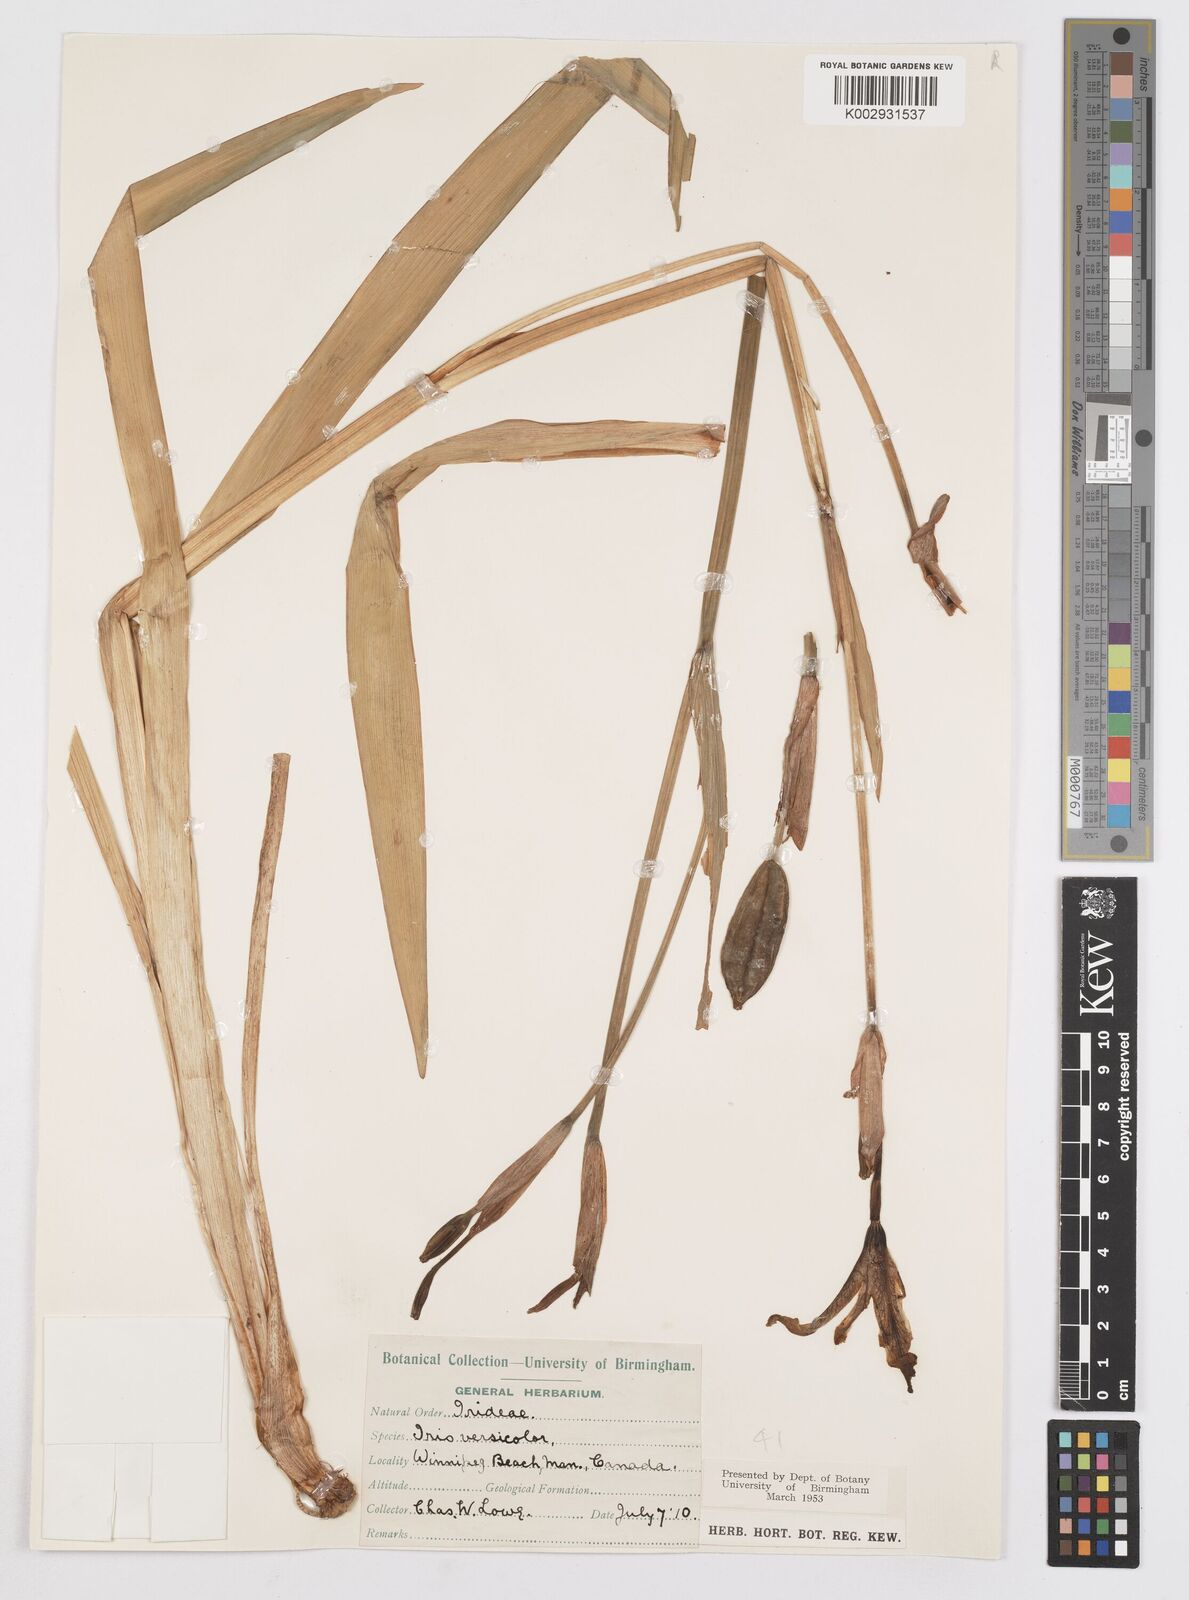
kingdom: Plantae
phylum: Tracheophyta
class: Liliopsida
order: Asparagales
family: Iridaceae
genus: Iris
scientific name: Iris versicolor
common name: Purple iris
